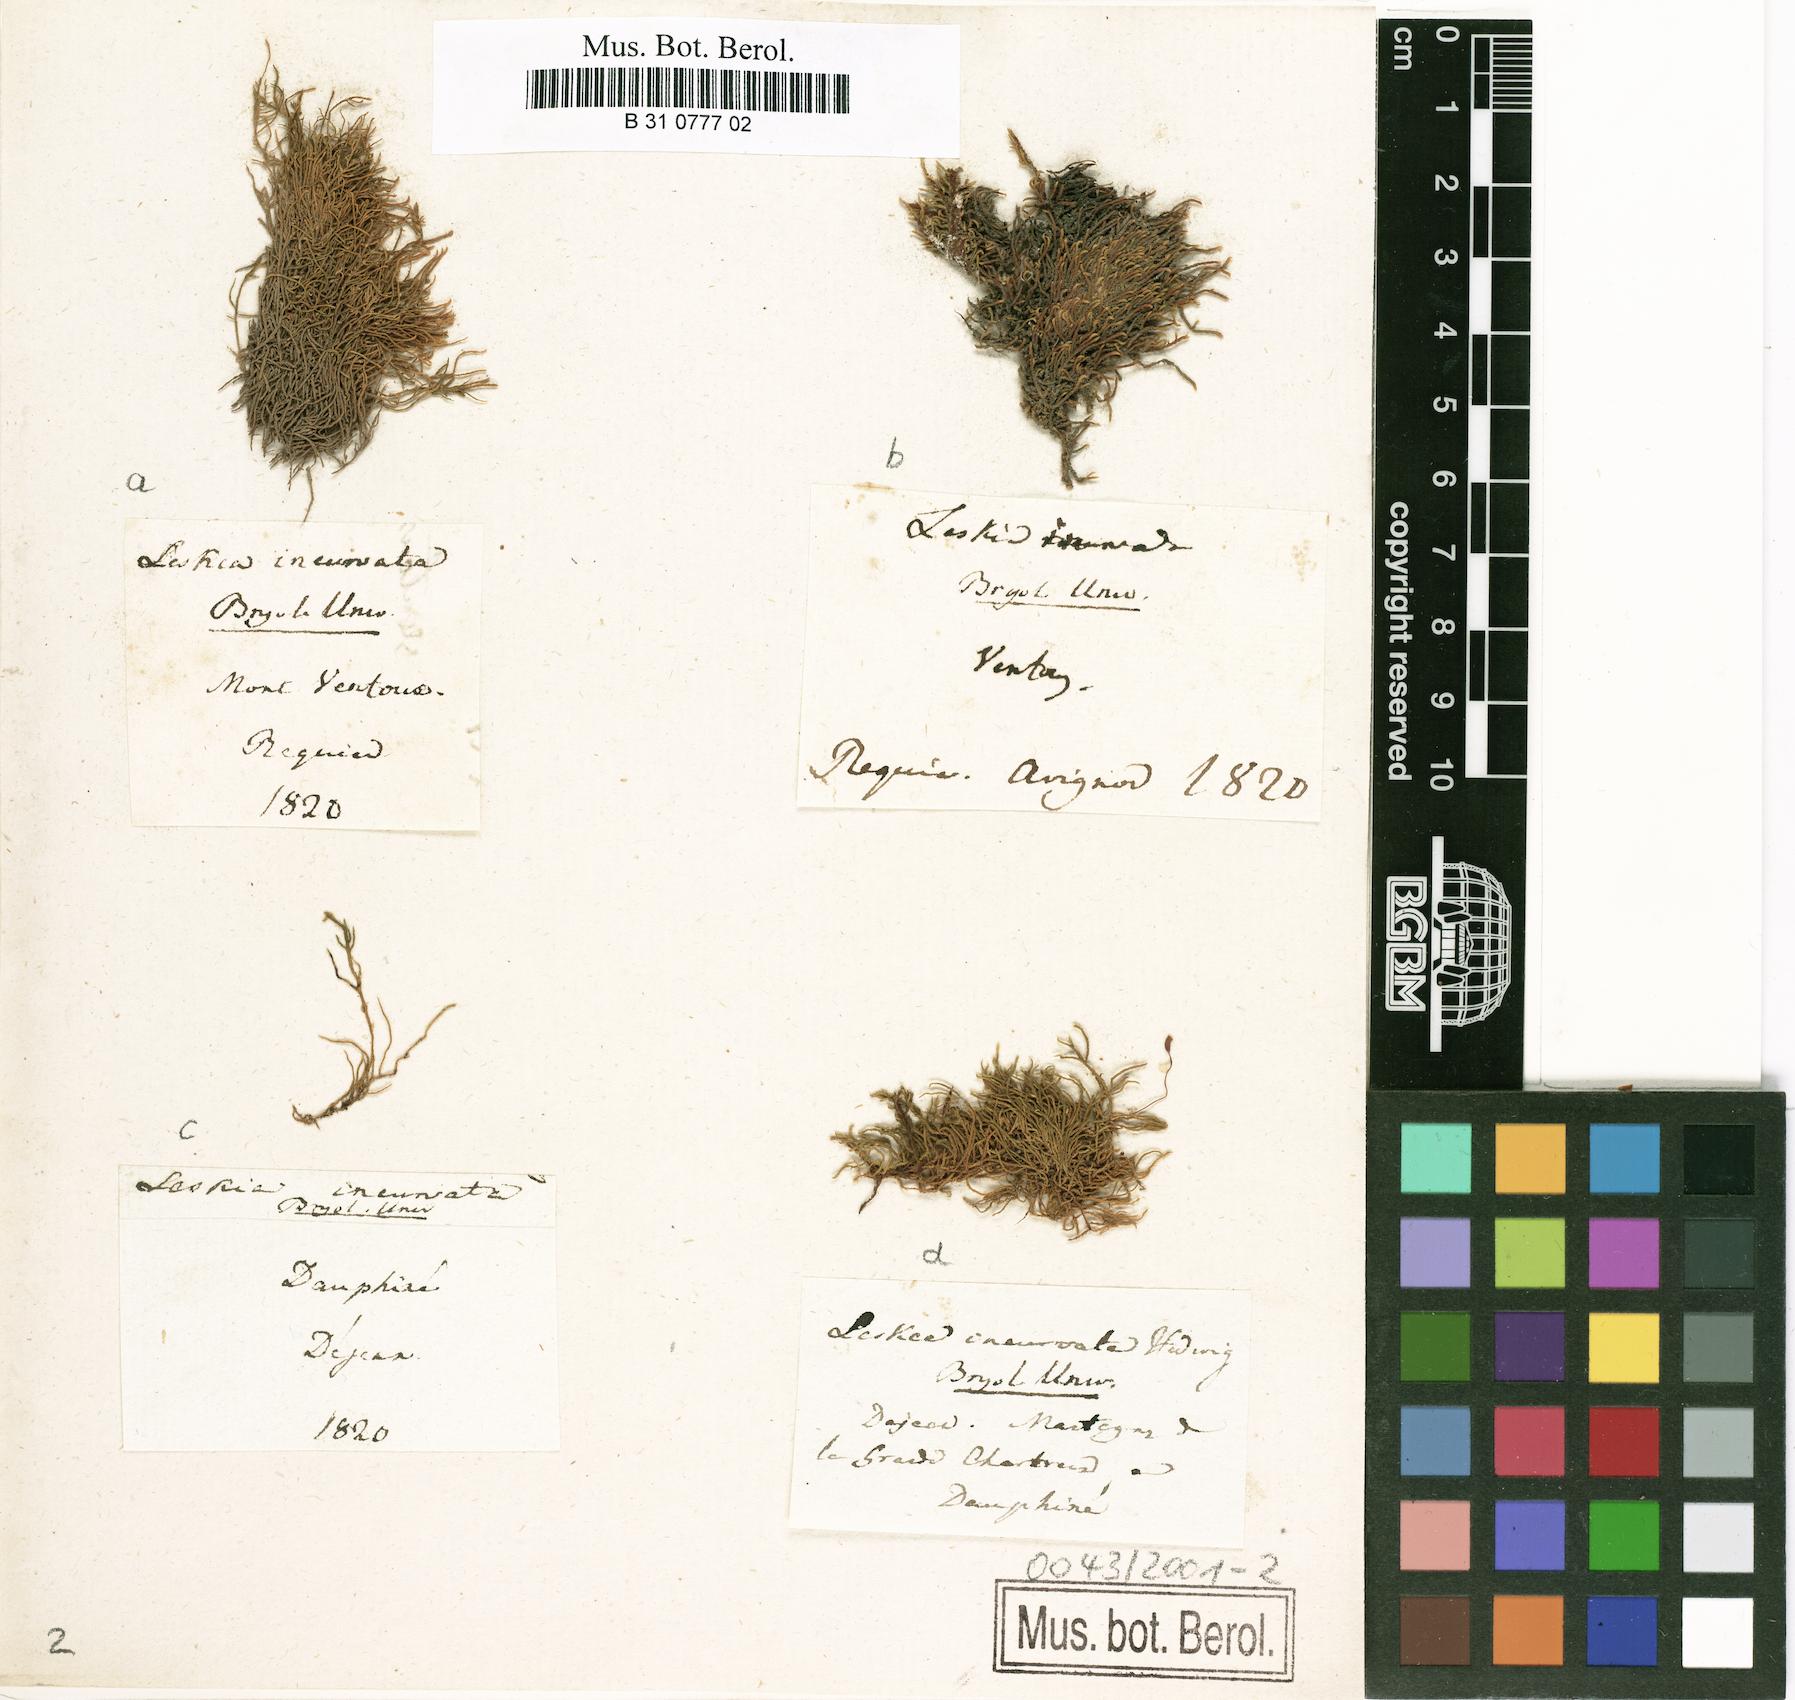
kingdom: Plantae
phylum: Bryophyta
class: Bryopsida
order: Hypnales
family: Pseudoleskeaceae
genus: Lescuraea
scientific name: Lescuraea incurvata
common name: Brown mountain leskea
